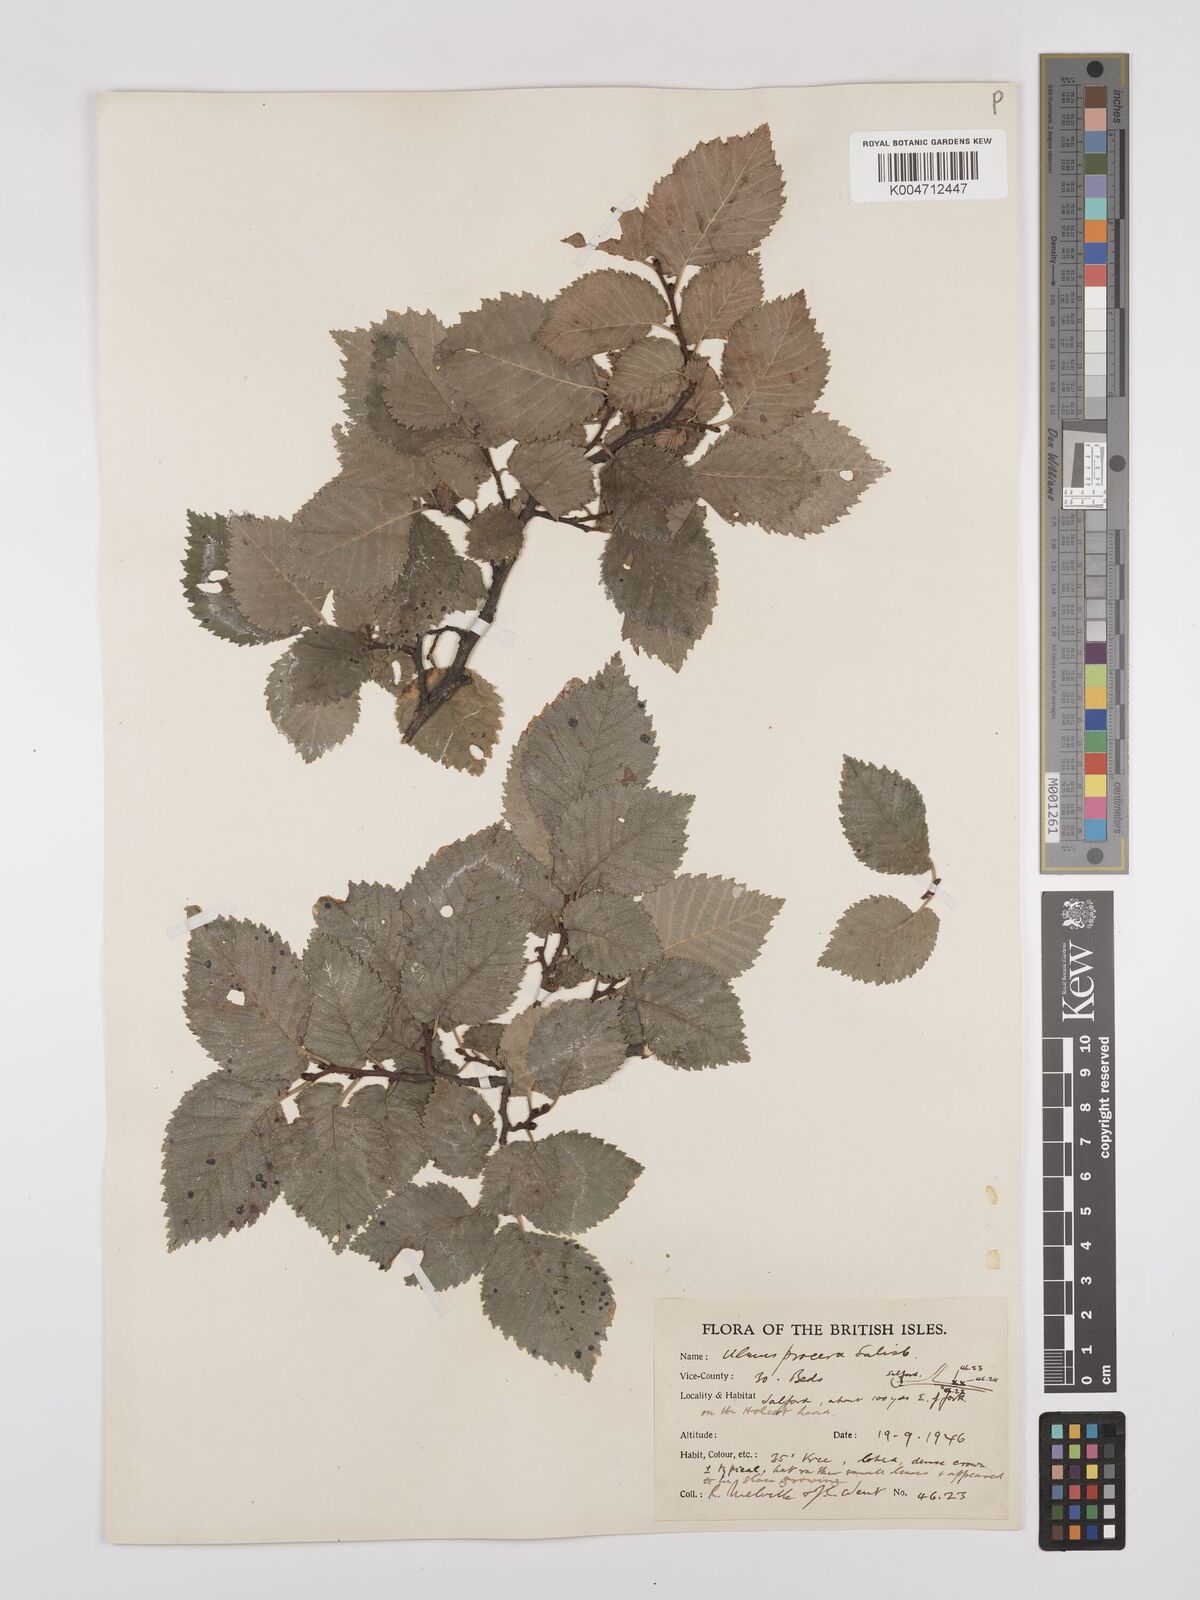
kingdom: Plantae
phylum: Tracheophyta
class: Magnoliopsida
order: Rosales
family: Ulmaceae
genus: Ulmus
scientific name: Ulmus minor
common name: Small-leaved elm
